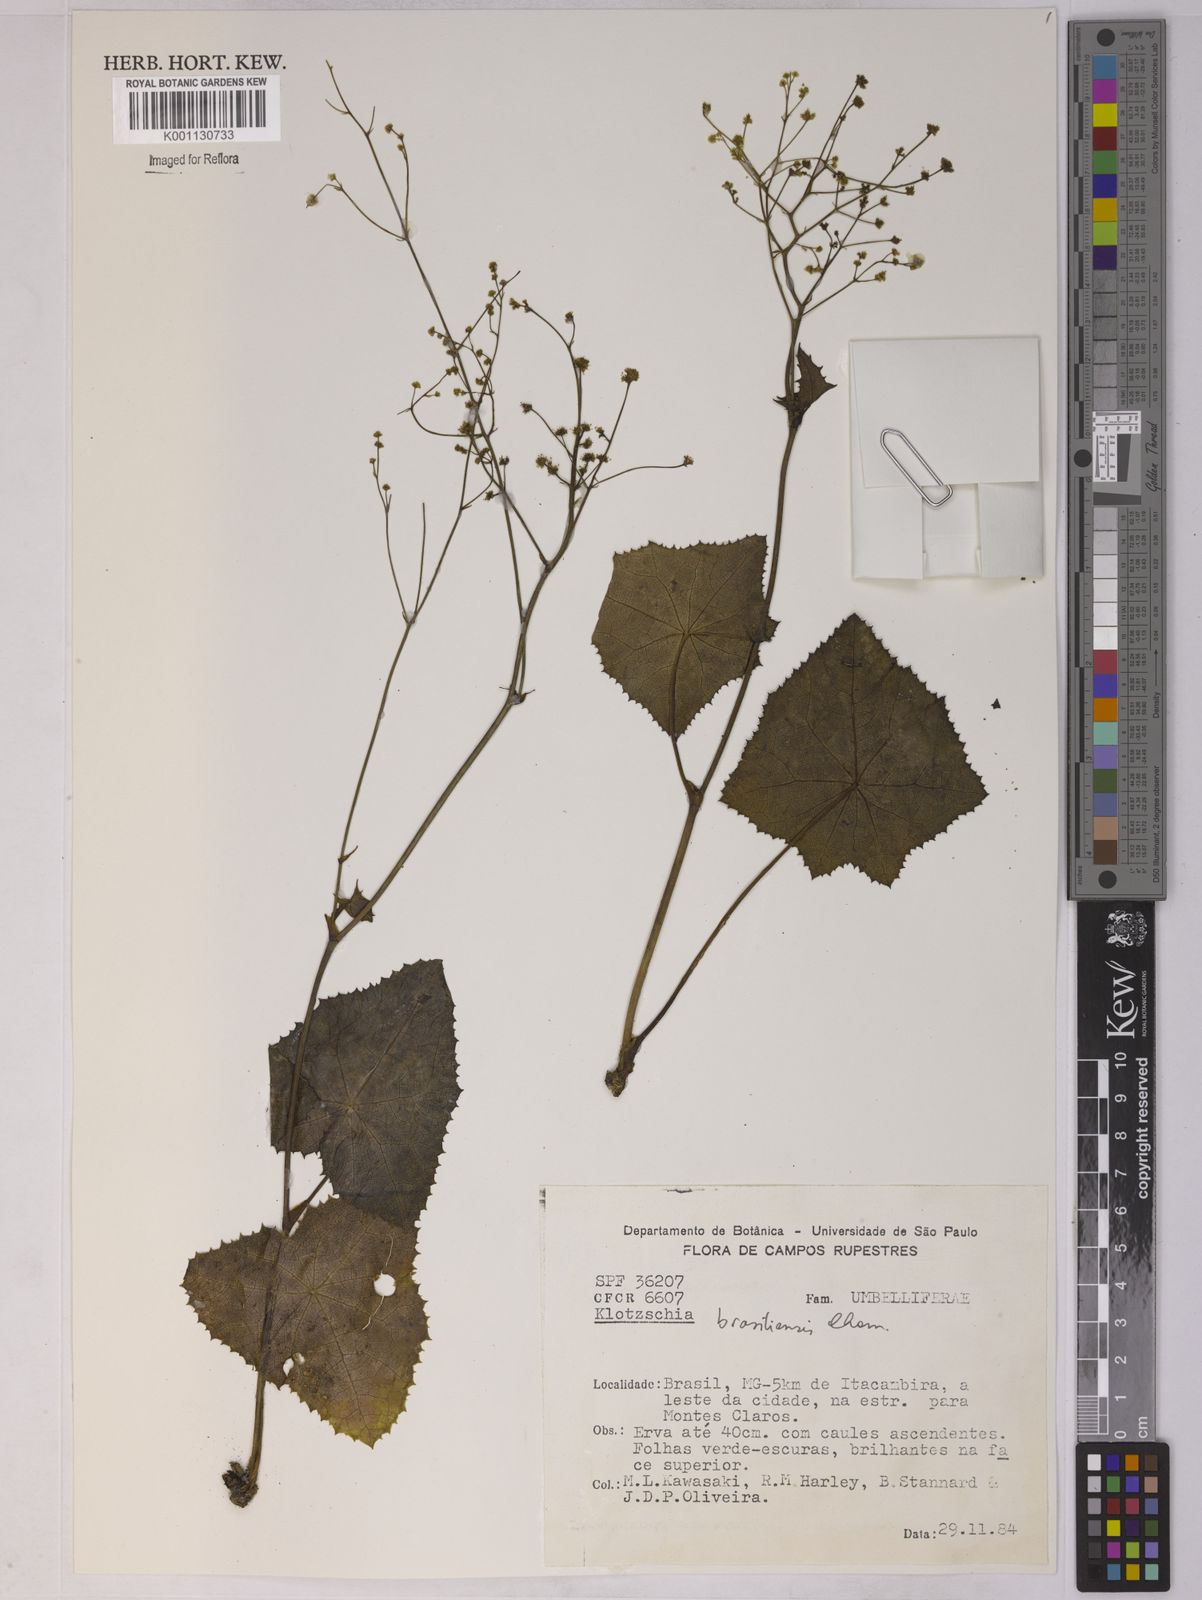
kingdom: Plantae
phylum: Tracheophyta
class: Magnoliopsida
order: Apiales
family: Apiaceae
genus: Klotzschia
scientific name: Klotzschia brasiliensis
